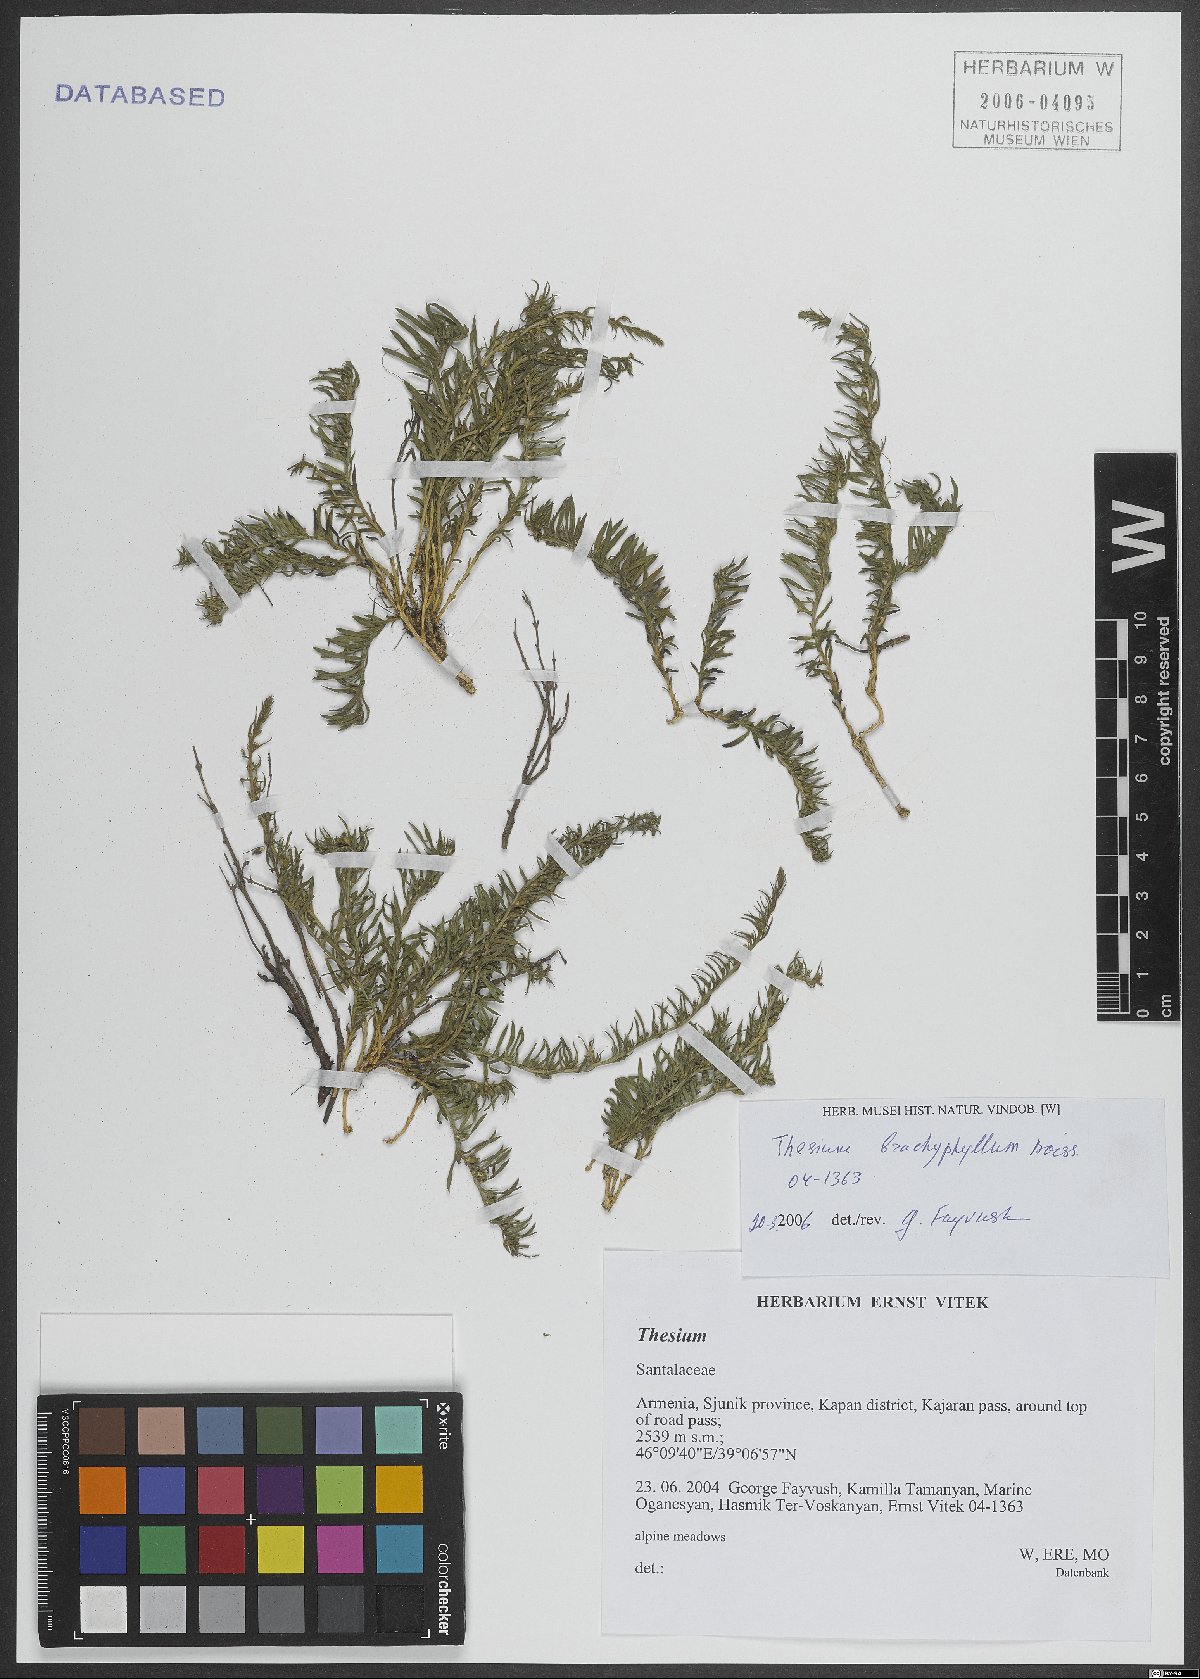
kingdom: Plantae
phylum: Tracheophyta
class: Magnoliopsida
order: Santalales
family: Thesiaceae
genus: Thesium
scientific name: Thesium procumbens
